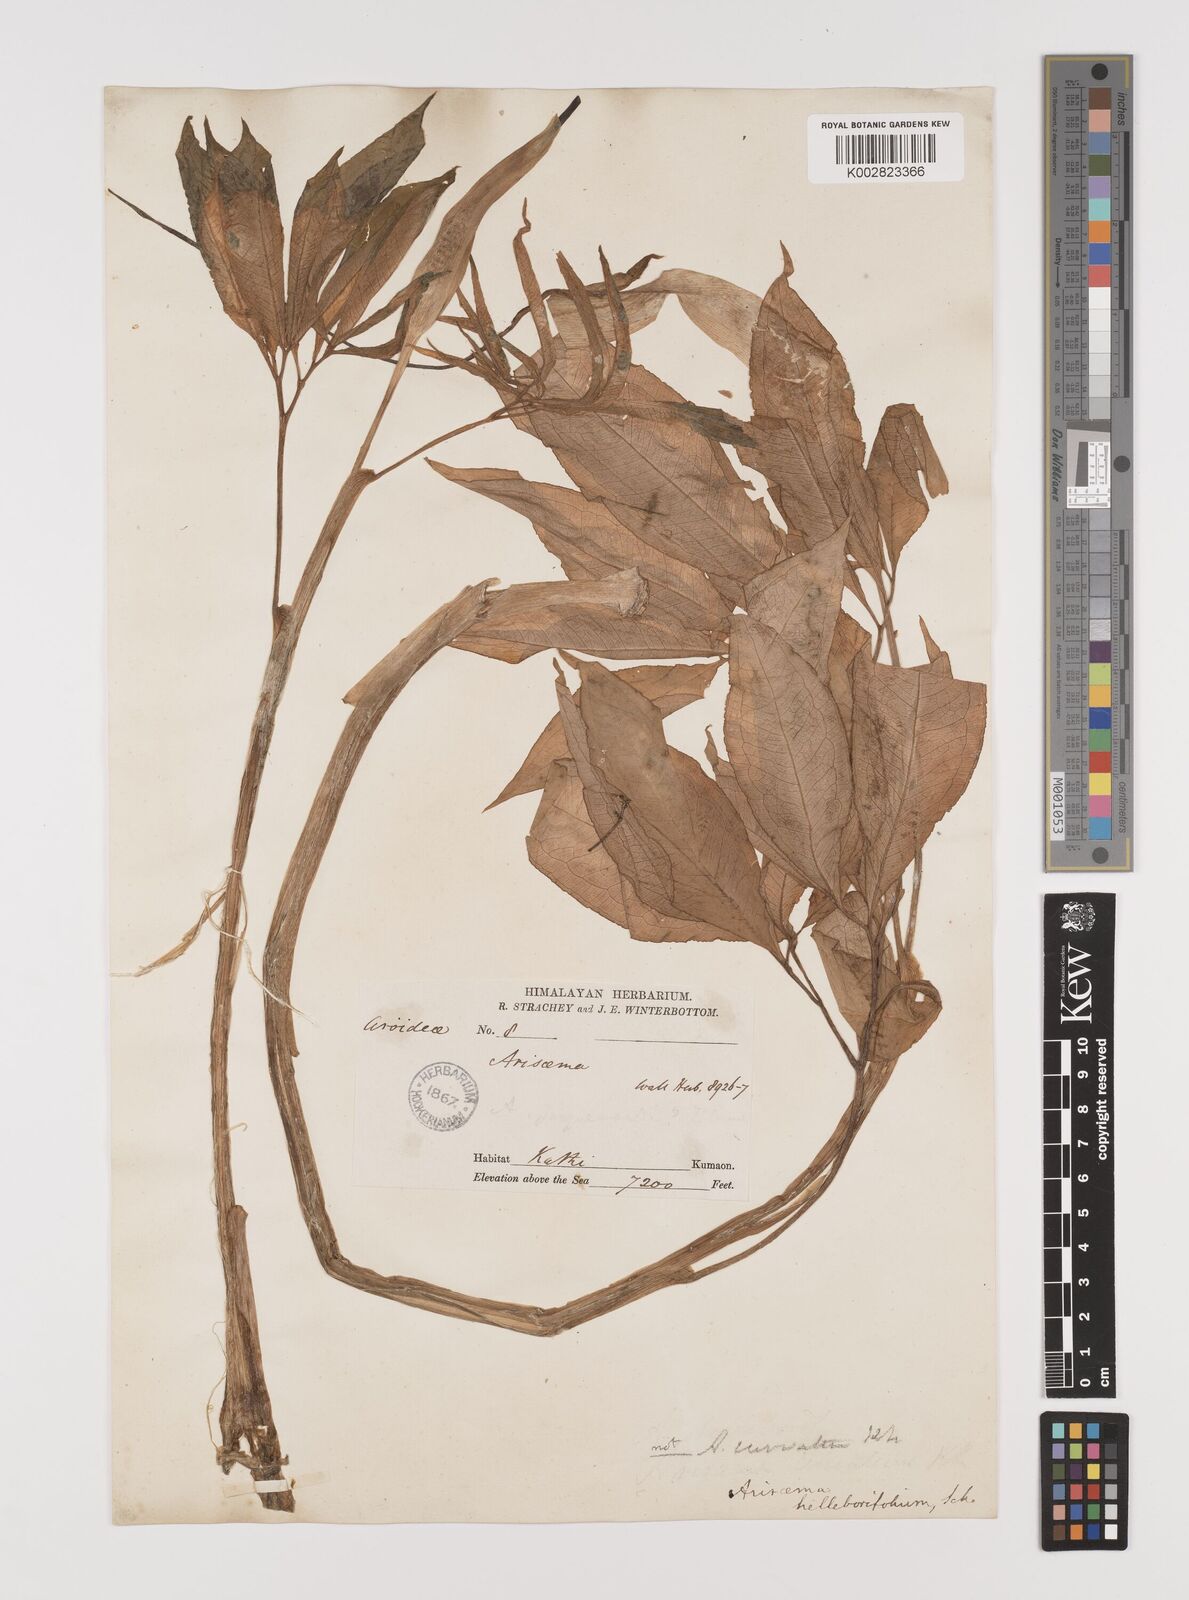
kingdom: Plantae
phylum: Tracheophyta
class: Liliopsida
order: Alismatales
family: Araceae
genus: Arisaema
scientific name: Arisaema tortuosum
